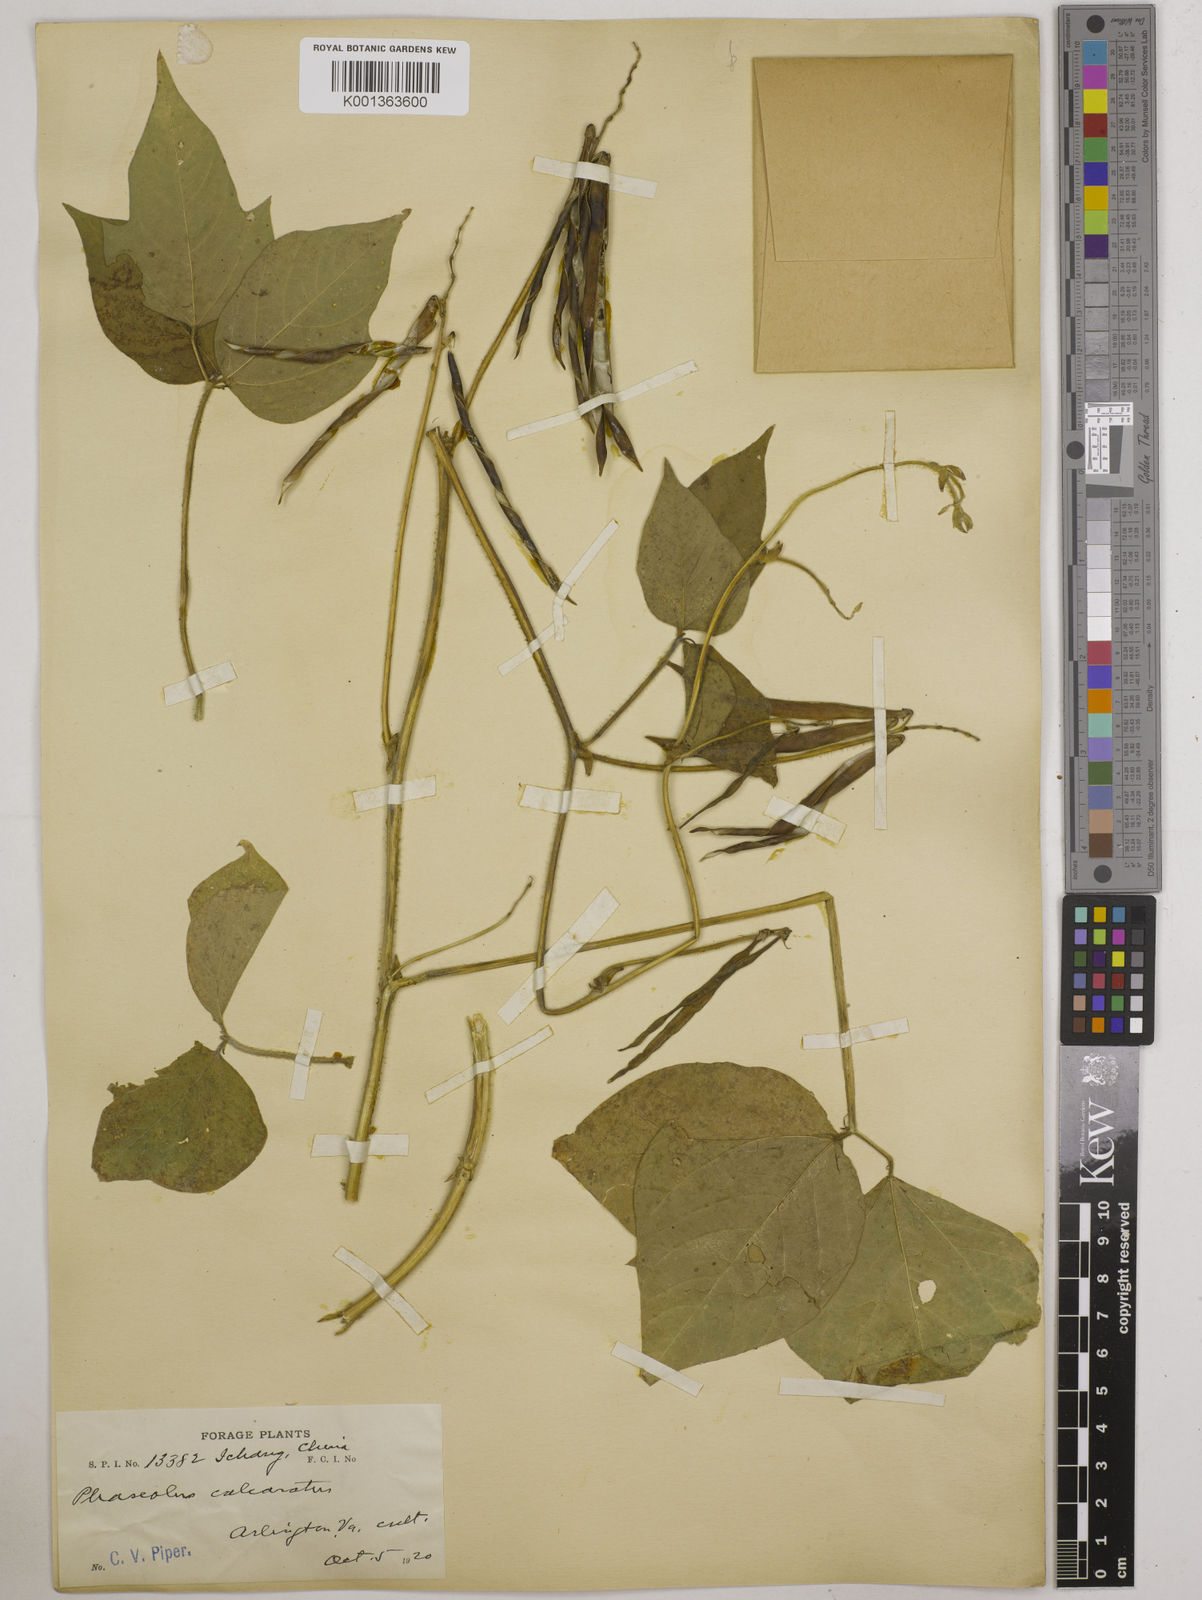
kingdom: Plantae
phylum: Tracheophyta
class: Magnoliopsida
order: Fabales
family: Fabaceae
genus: Vigna
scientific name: Vigna umbellata
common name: Oriental-bean
